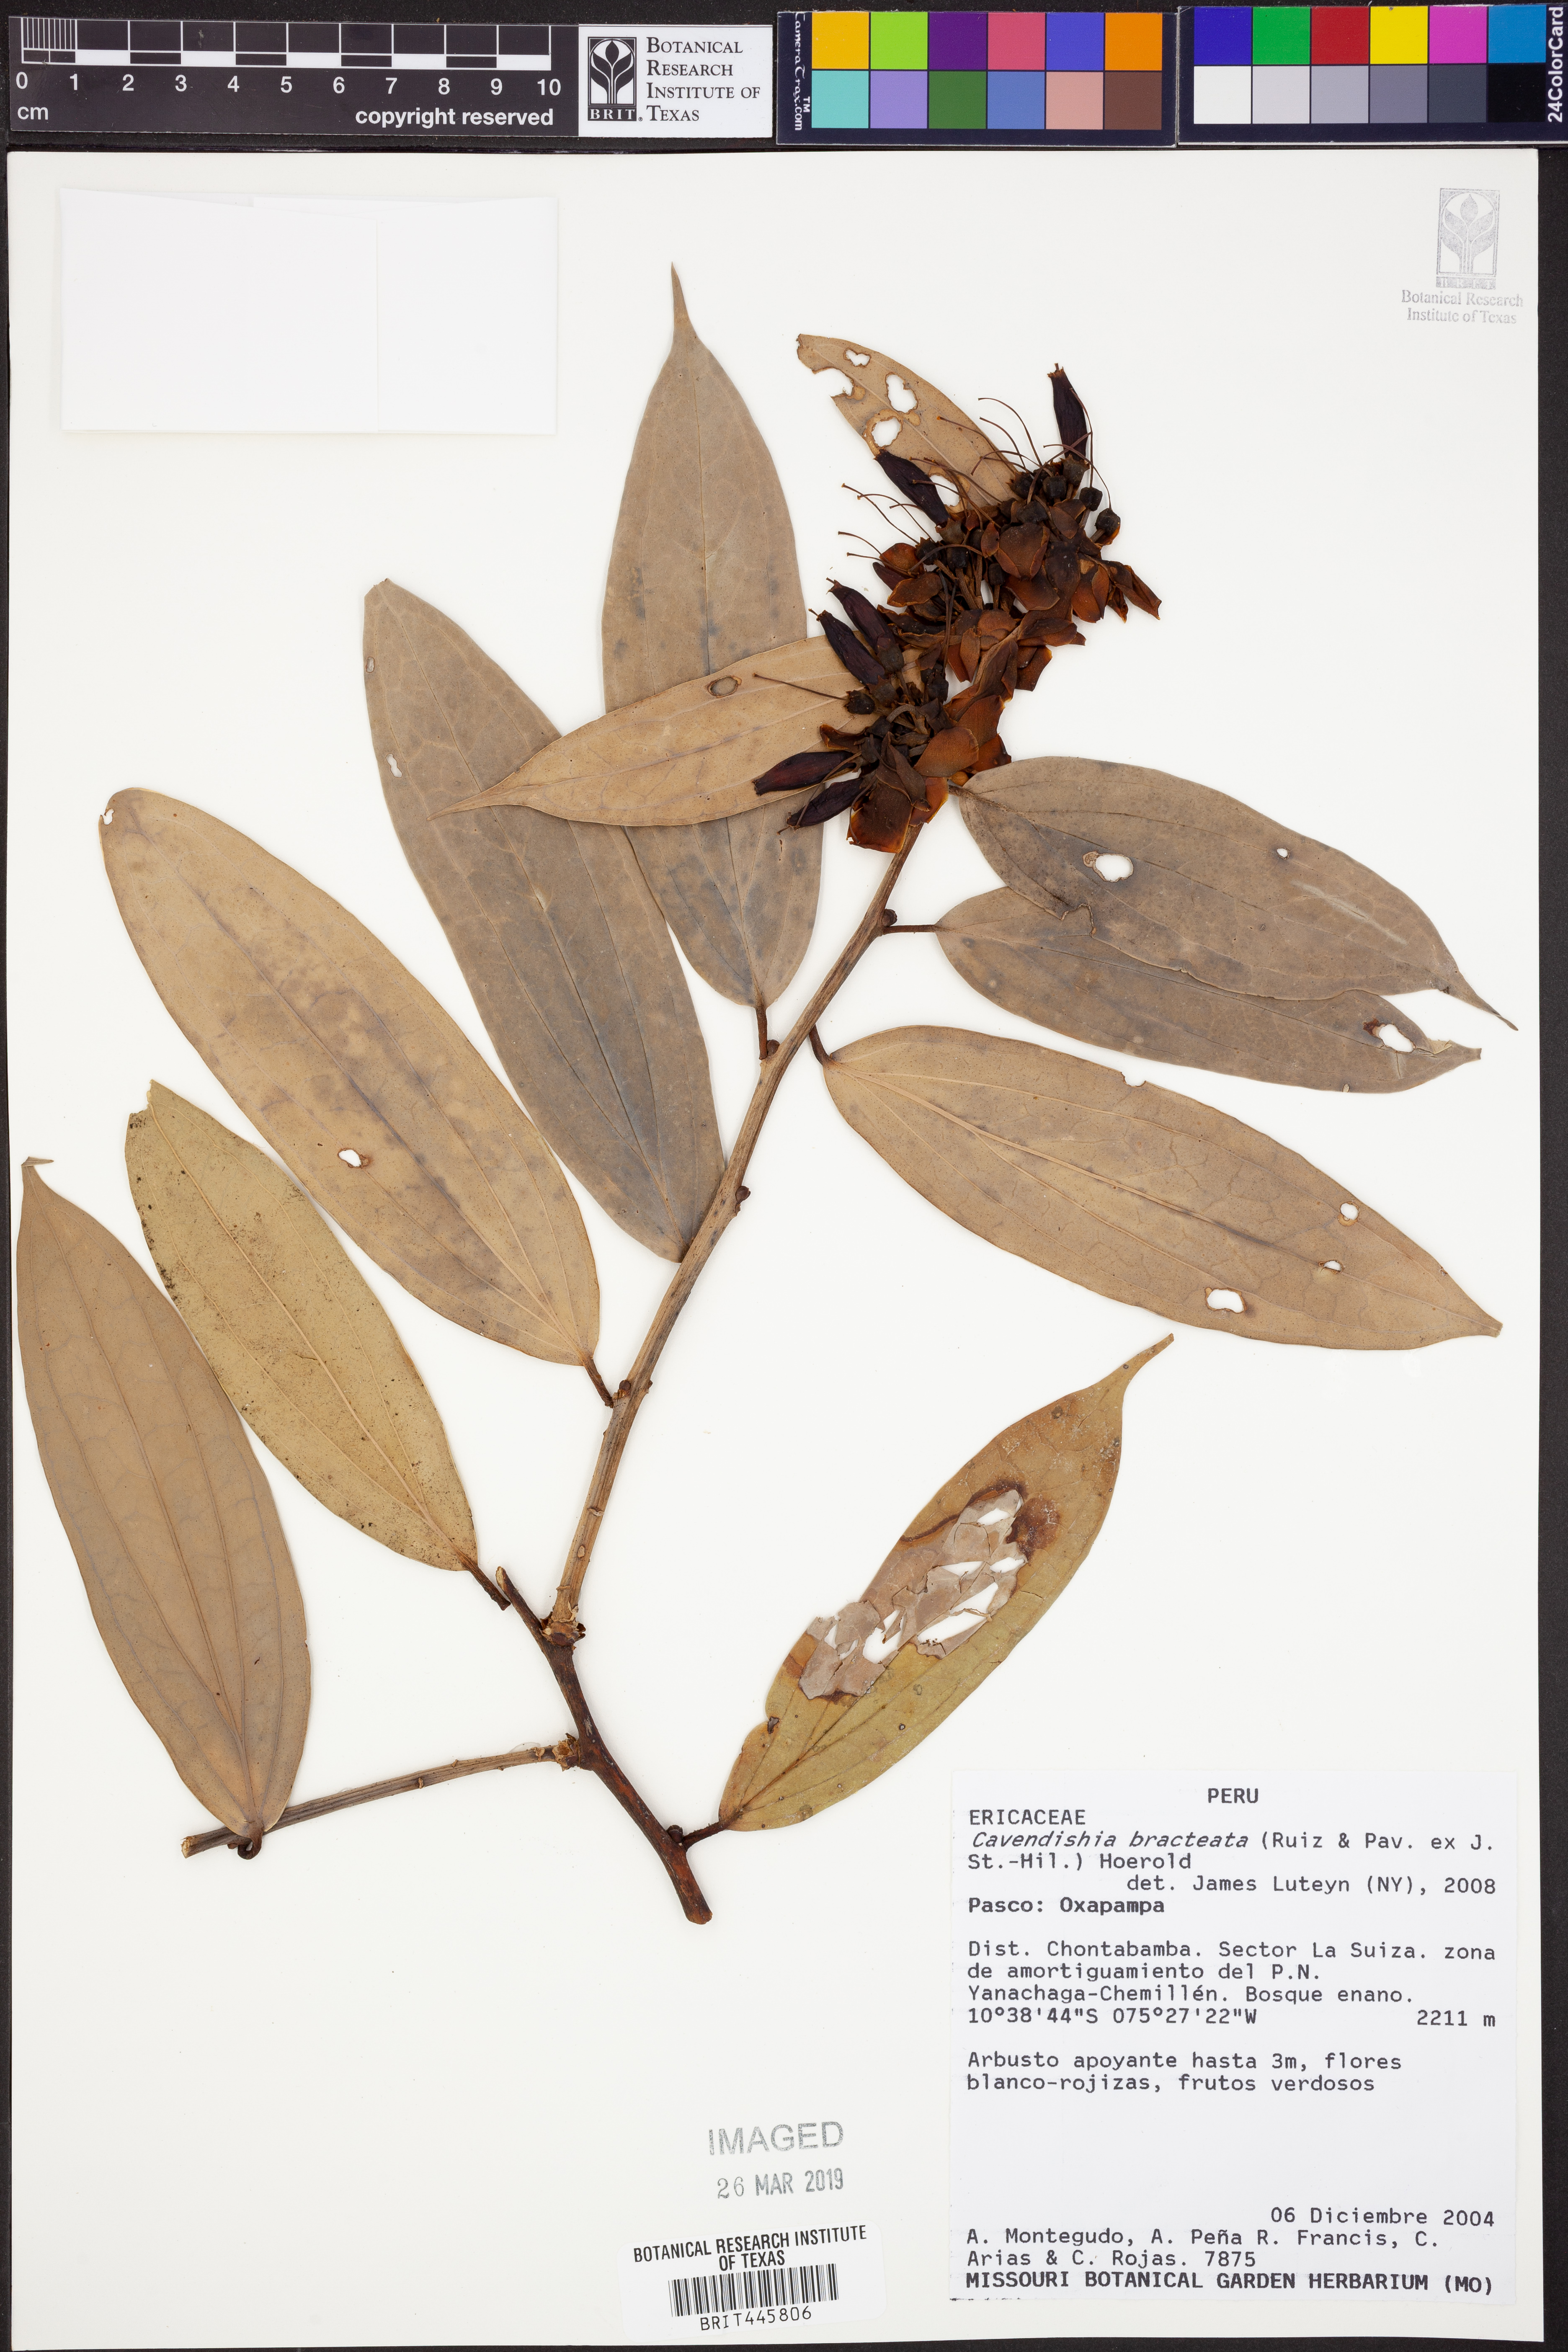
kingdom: Plantae
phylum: Tracheophyta
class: Magnoliopsida
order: Ericales
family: Ericaceae
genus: Cavendishia
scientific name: Cavendishia bracteata
